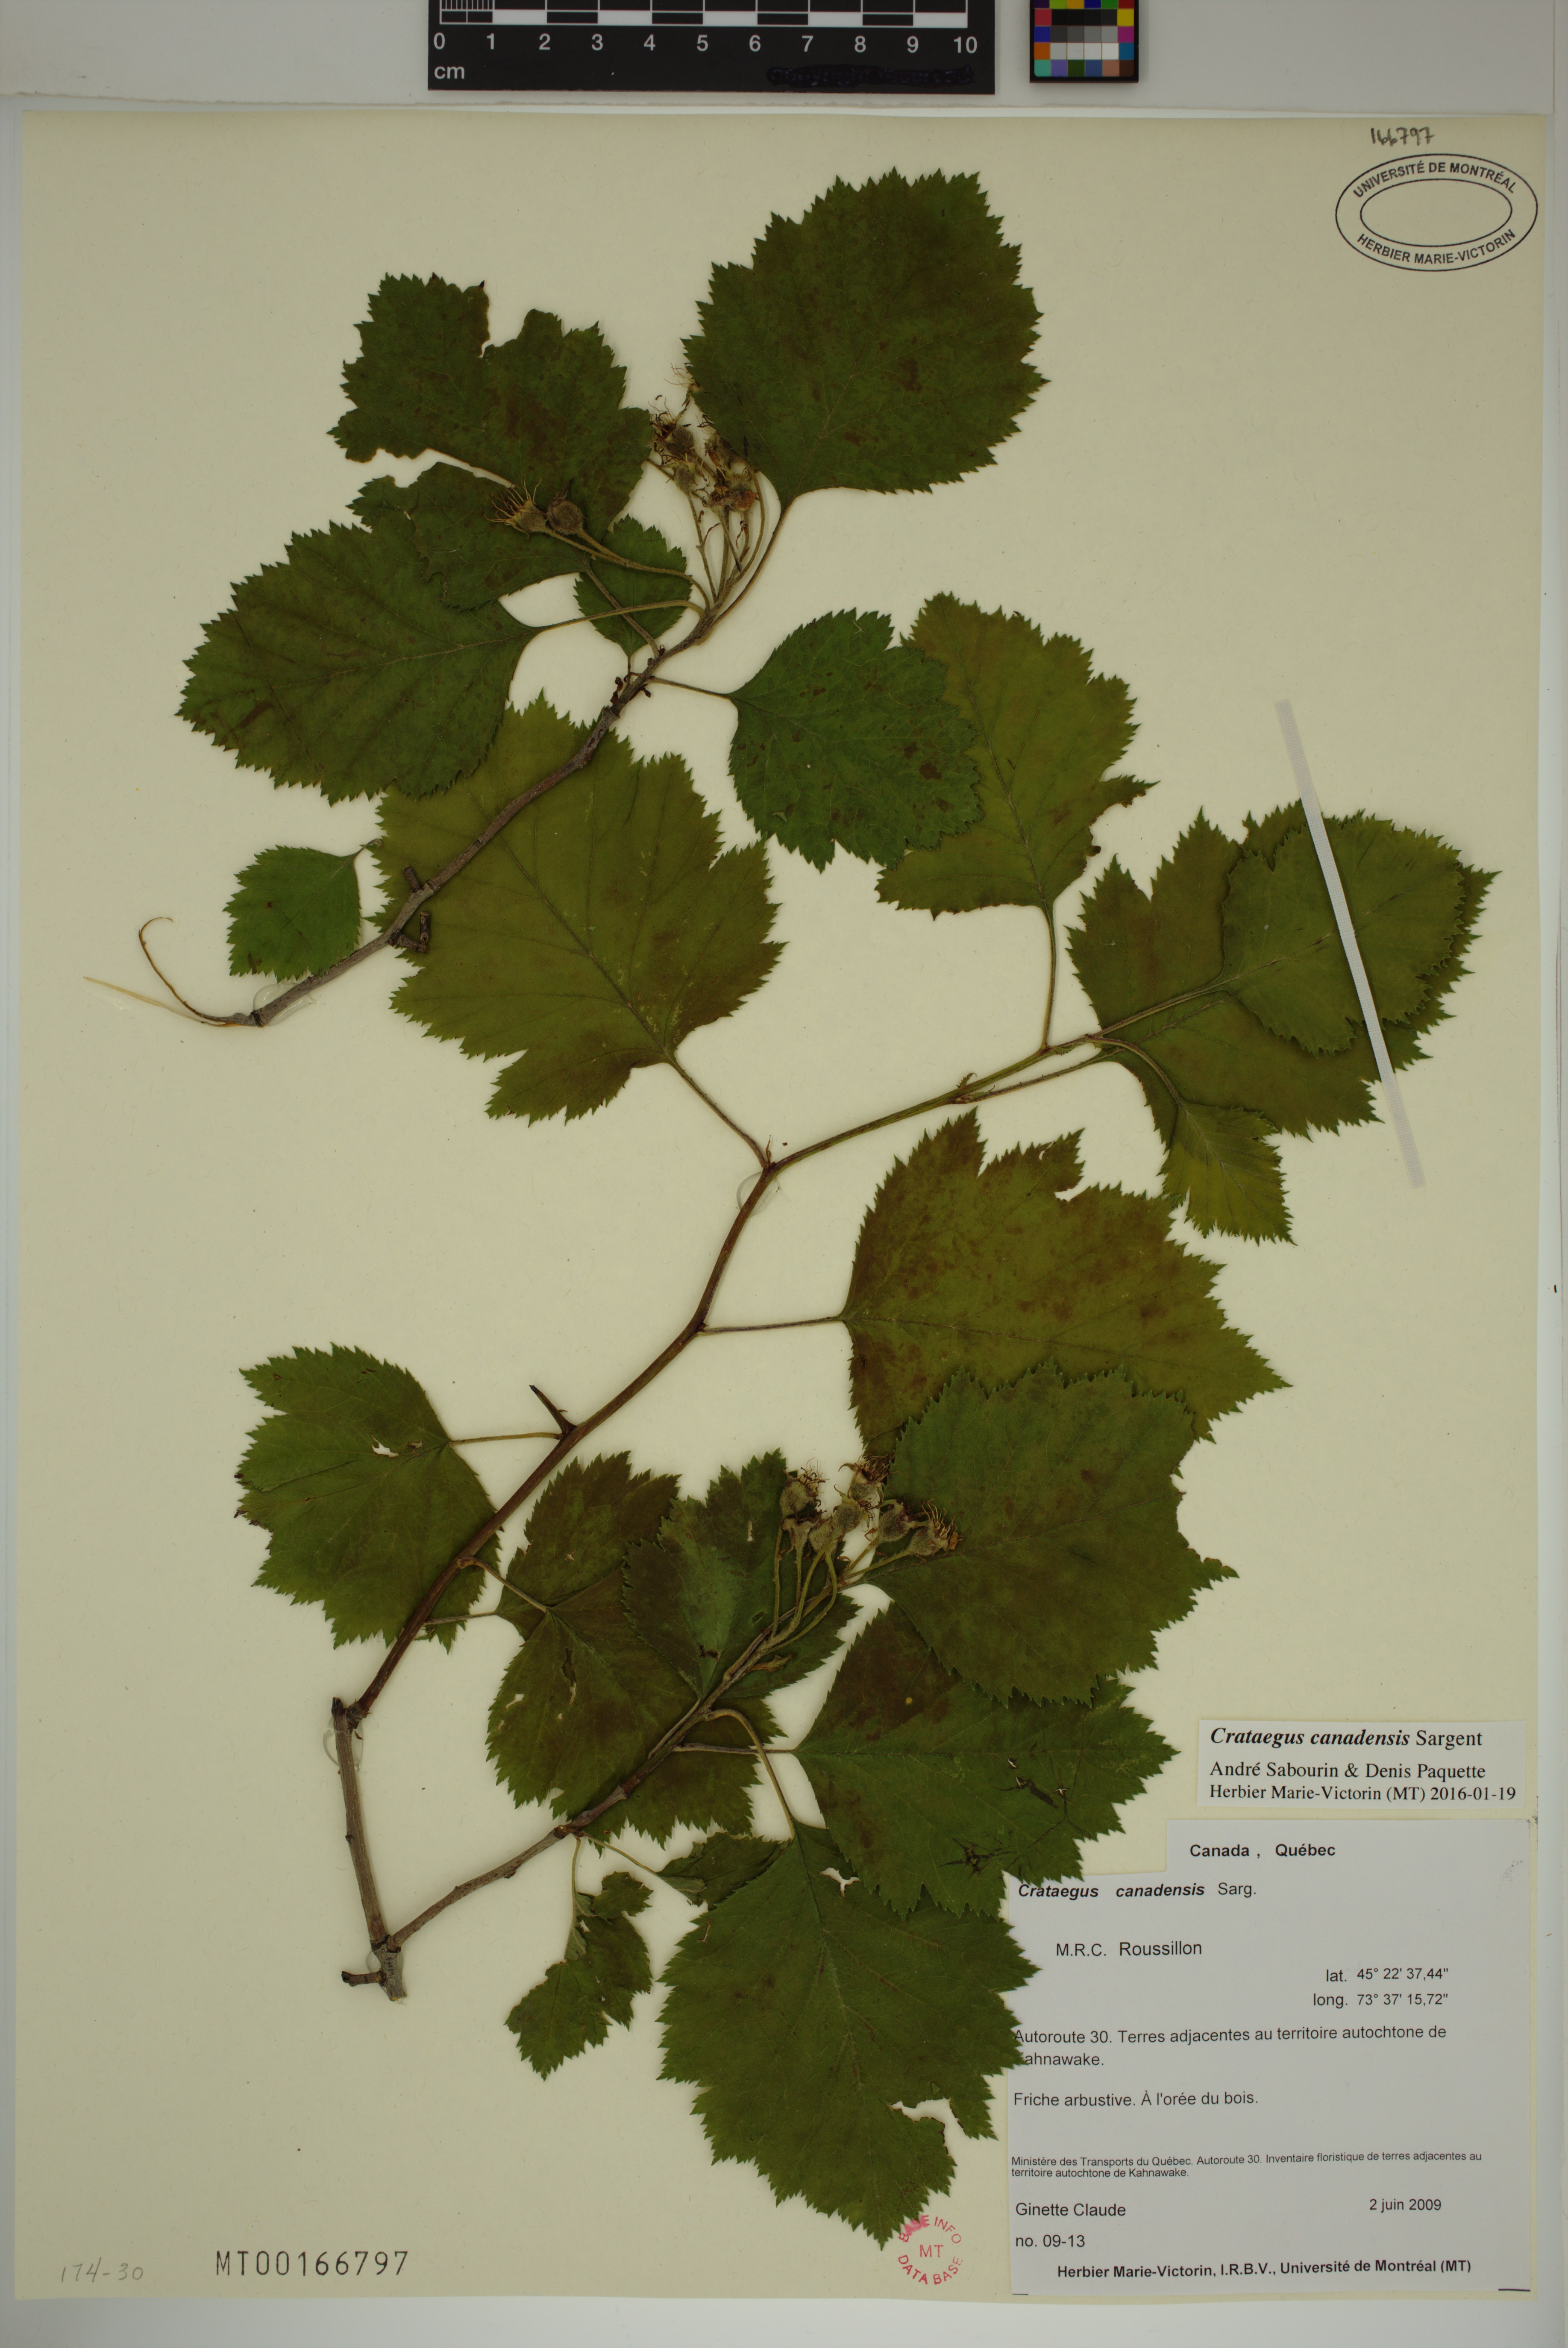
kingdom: Plantae
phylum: Tracheophyta
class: Magnoliopsida
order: Rosales
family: Rosaceae
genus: Crataegus
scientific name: Crataegus submollis
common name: Hairy cockspurthorn
